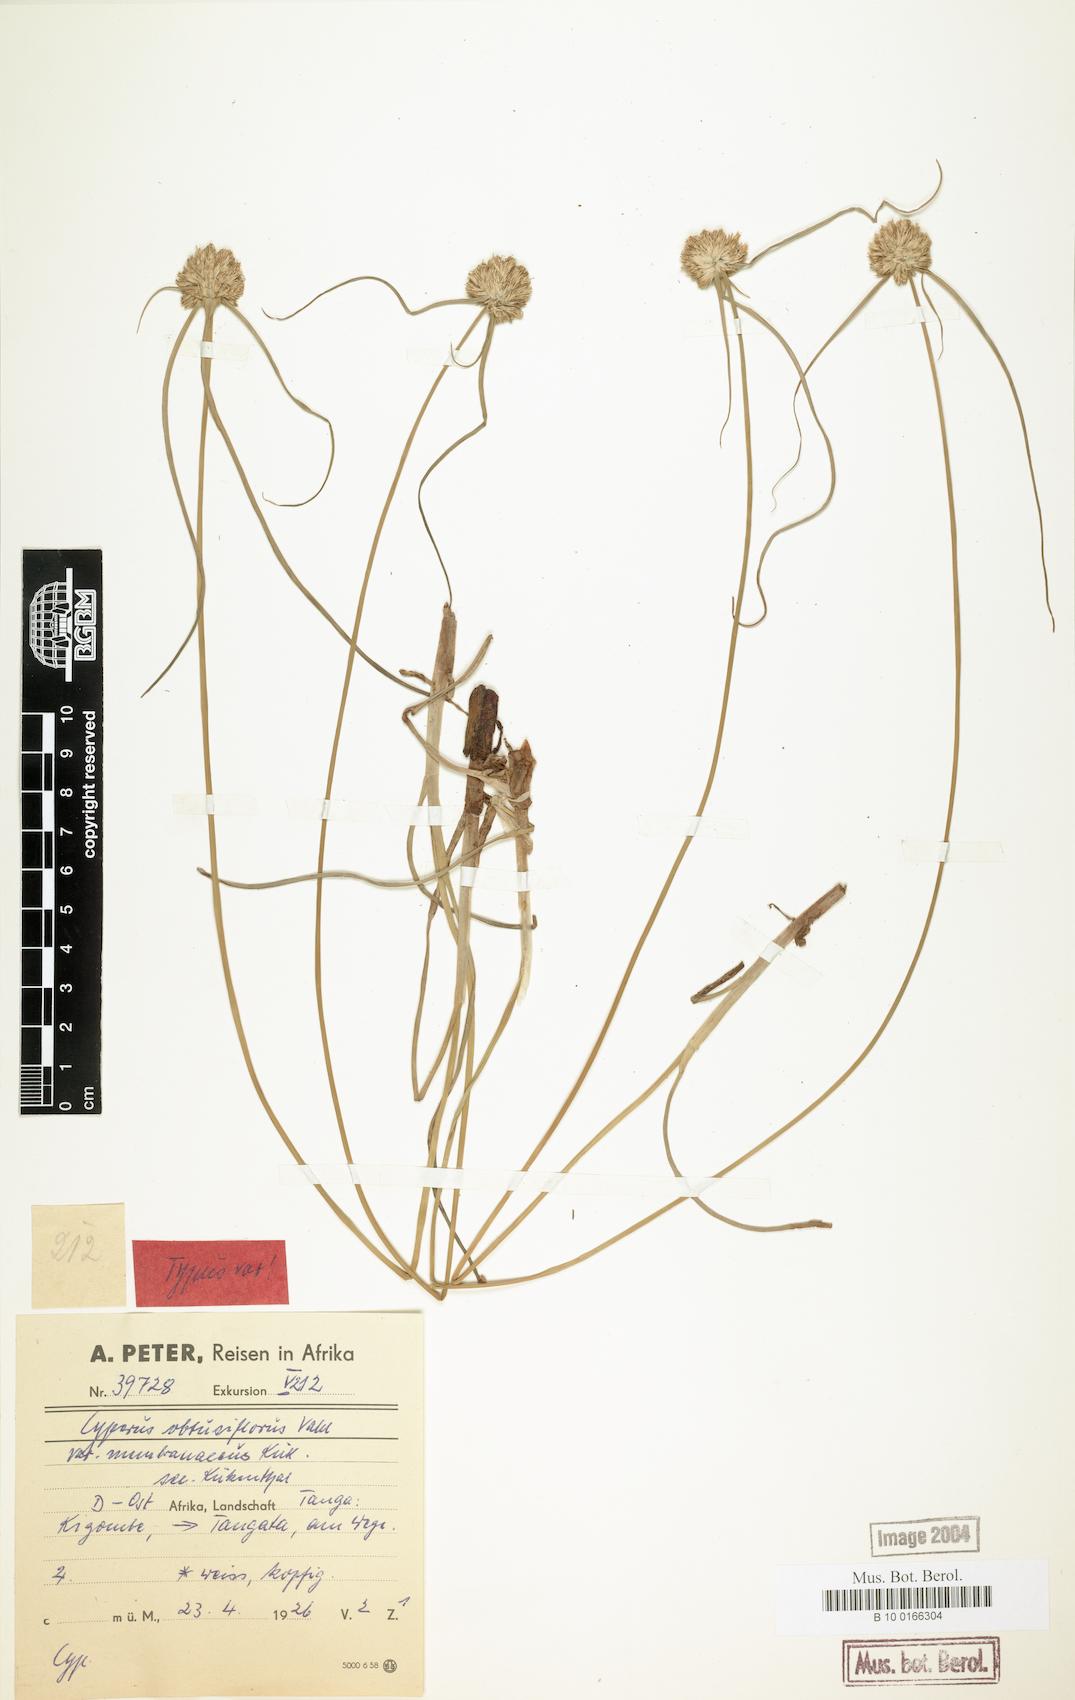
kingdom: Plantae
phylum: Tracheophyta
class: Liliopsida
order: Poales
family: Cyperaceae
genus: Cyperus
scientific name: Cyperus niveus
